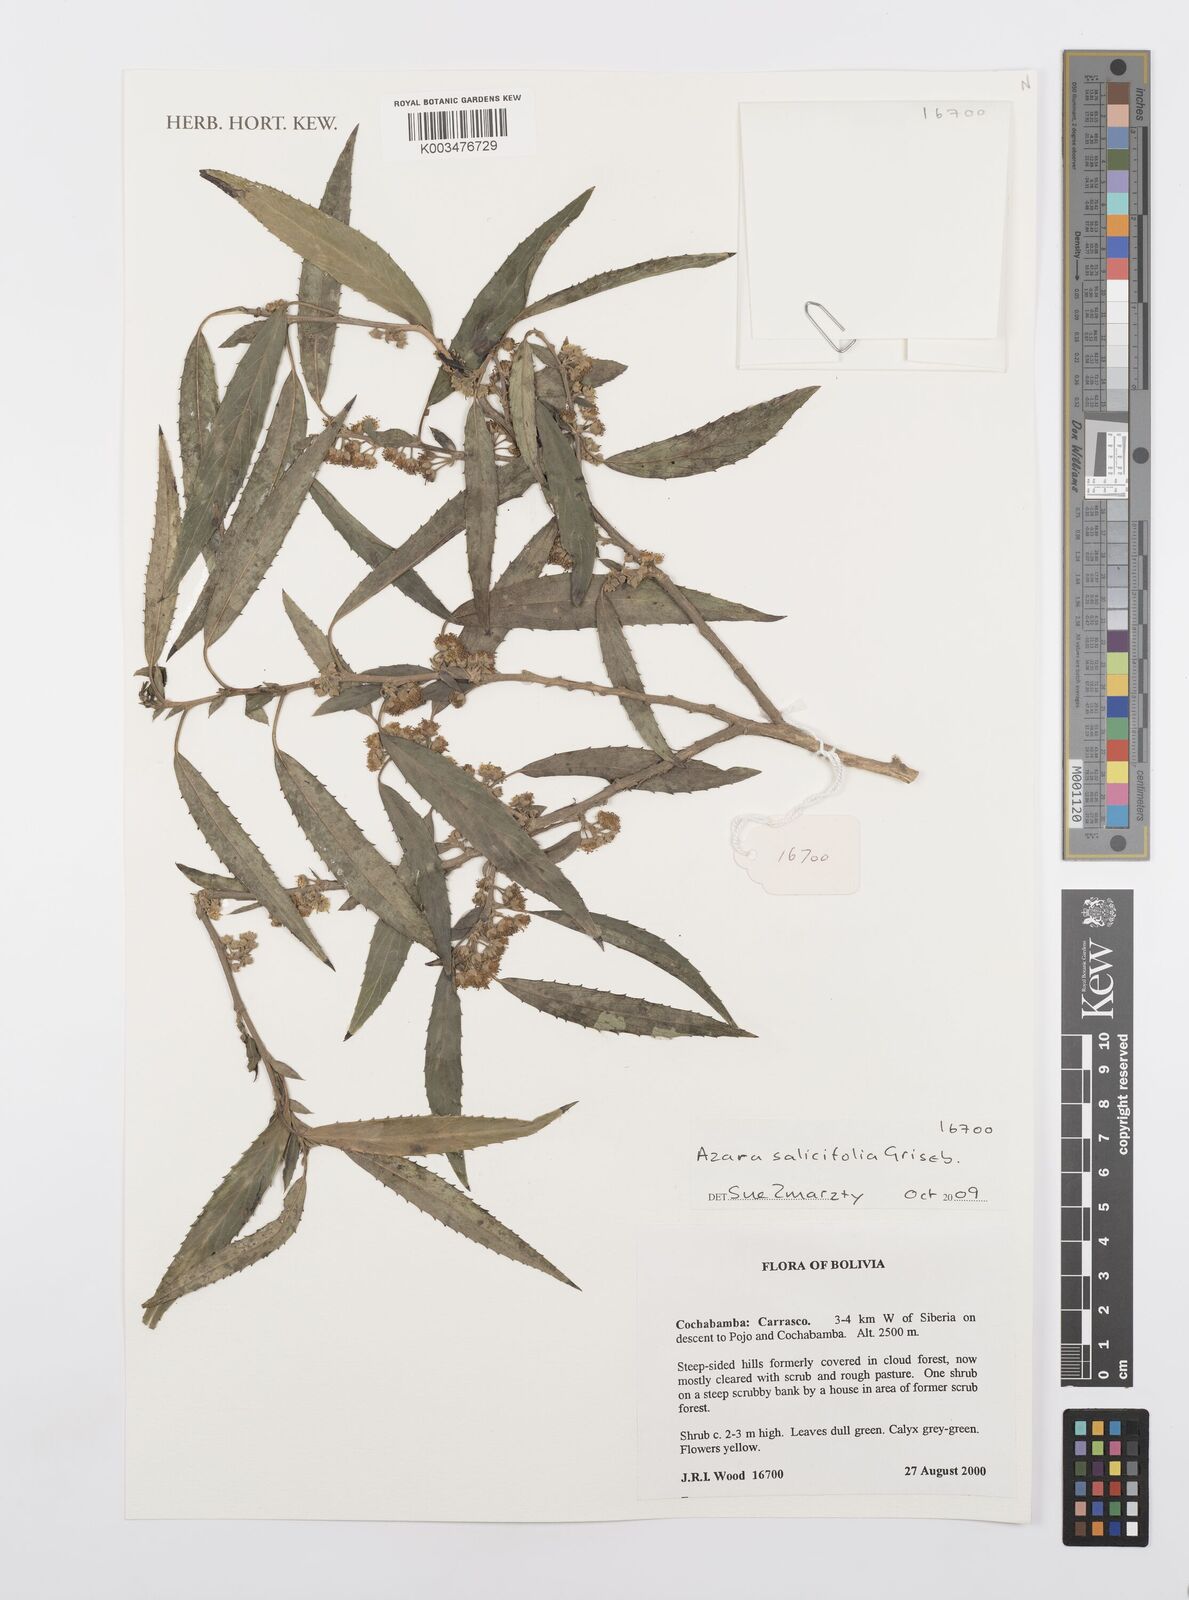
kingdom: Plantae
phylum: Tracheophyta
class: Magnoliopsida
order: Malpighiales
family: Salicaceae
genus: Azara
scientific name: Azara salicifolia
